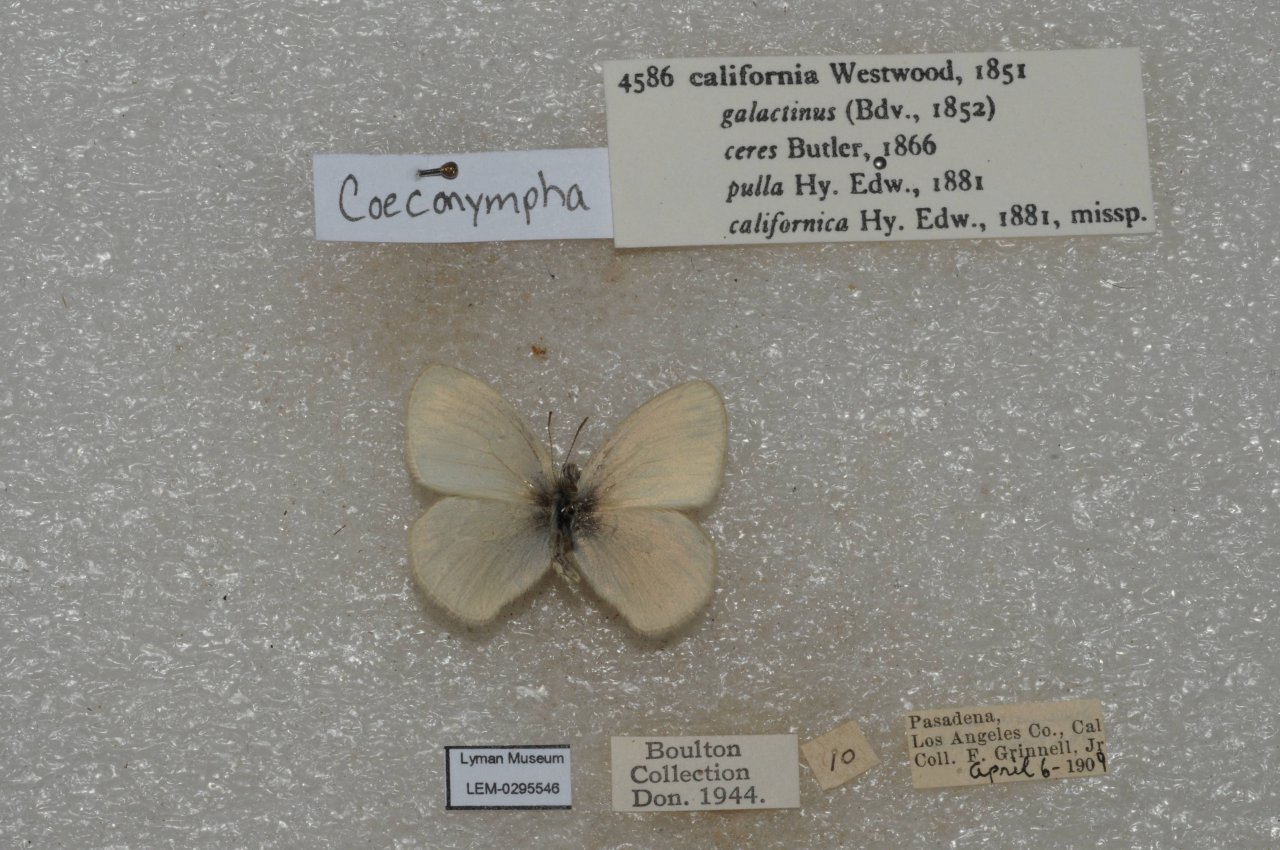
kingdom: Animalia
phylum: Arthropoda
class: Insecta
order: Lepidoptera
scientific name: Lepidoptera
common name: Butterflies
